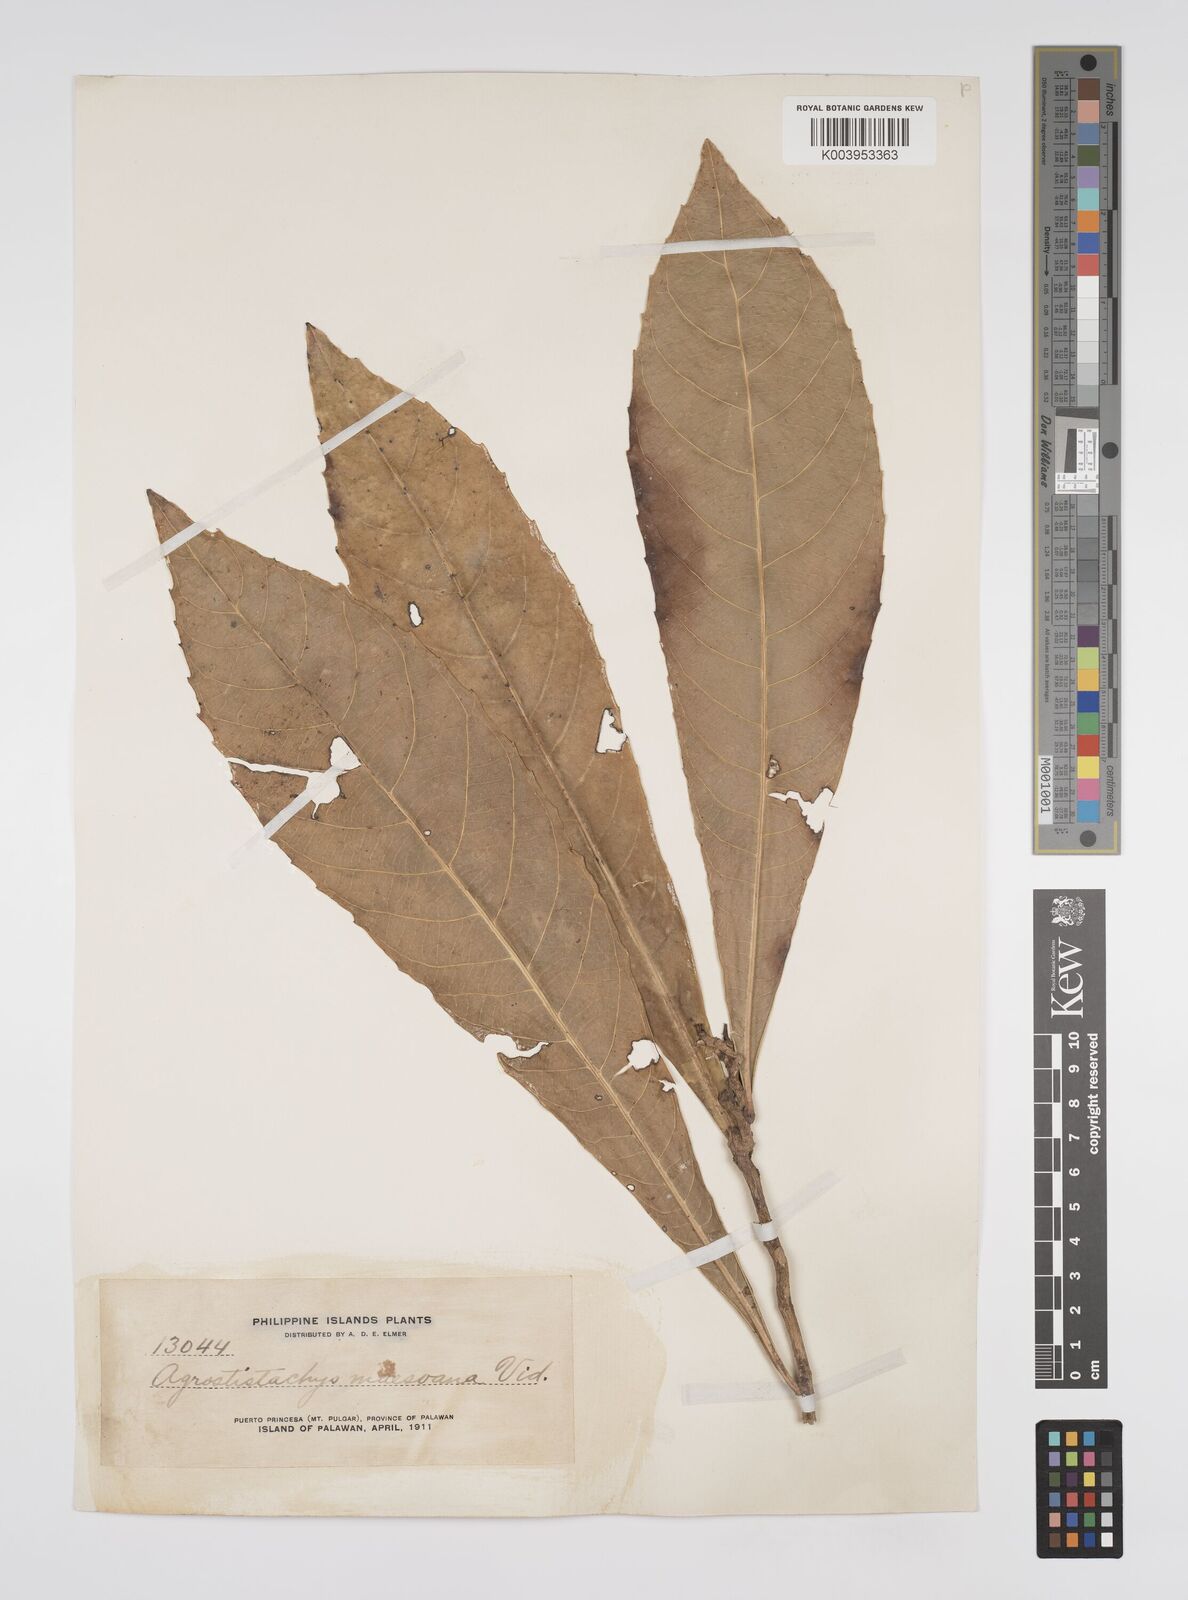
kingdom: Plantae
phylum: Tracheophyta
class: Magnoliopsida
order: Malpighiales
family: Euphorbiaceae
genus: Agrostistachys
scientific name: Agrostistachys indica
